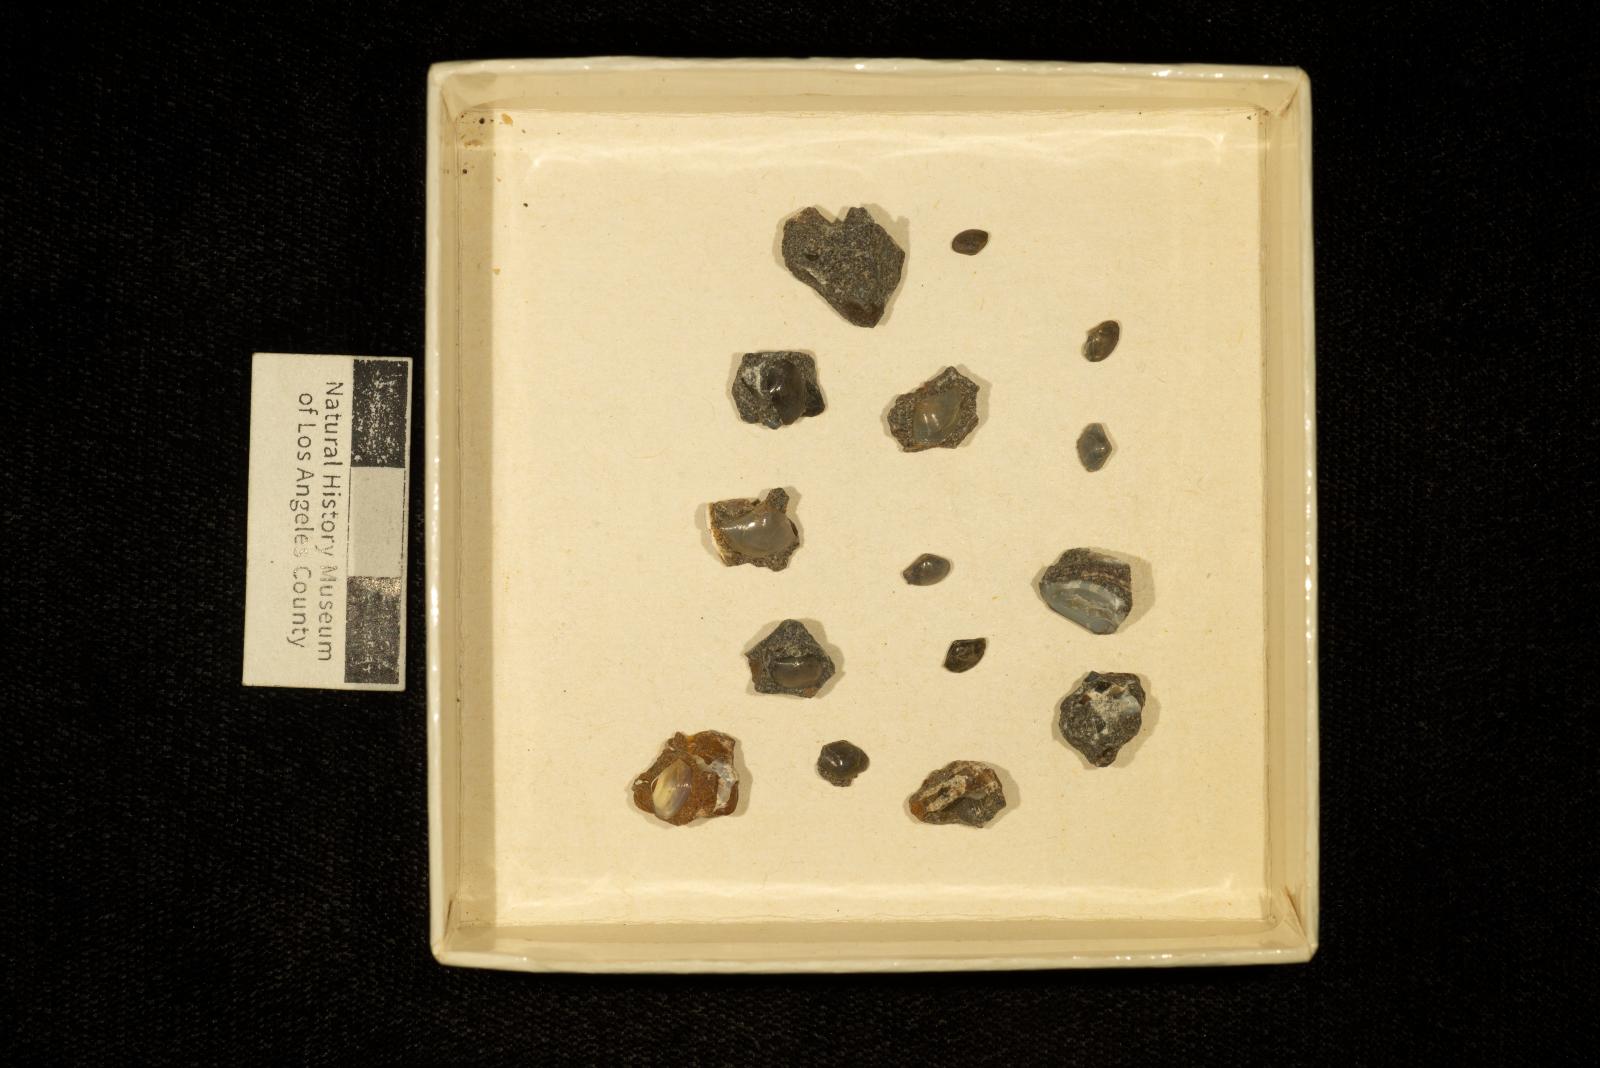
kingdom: Animalia
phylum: Mollusca
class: Bivalvia
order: Nuculanida
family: Nuculanidae
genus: Lembulus
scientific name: Lembulus
